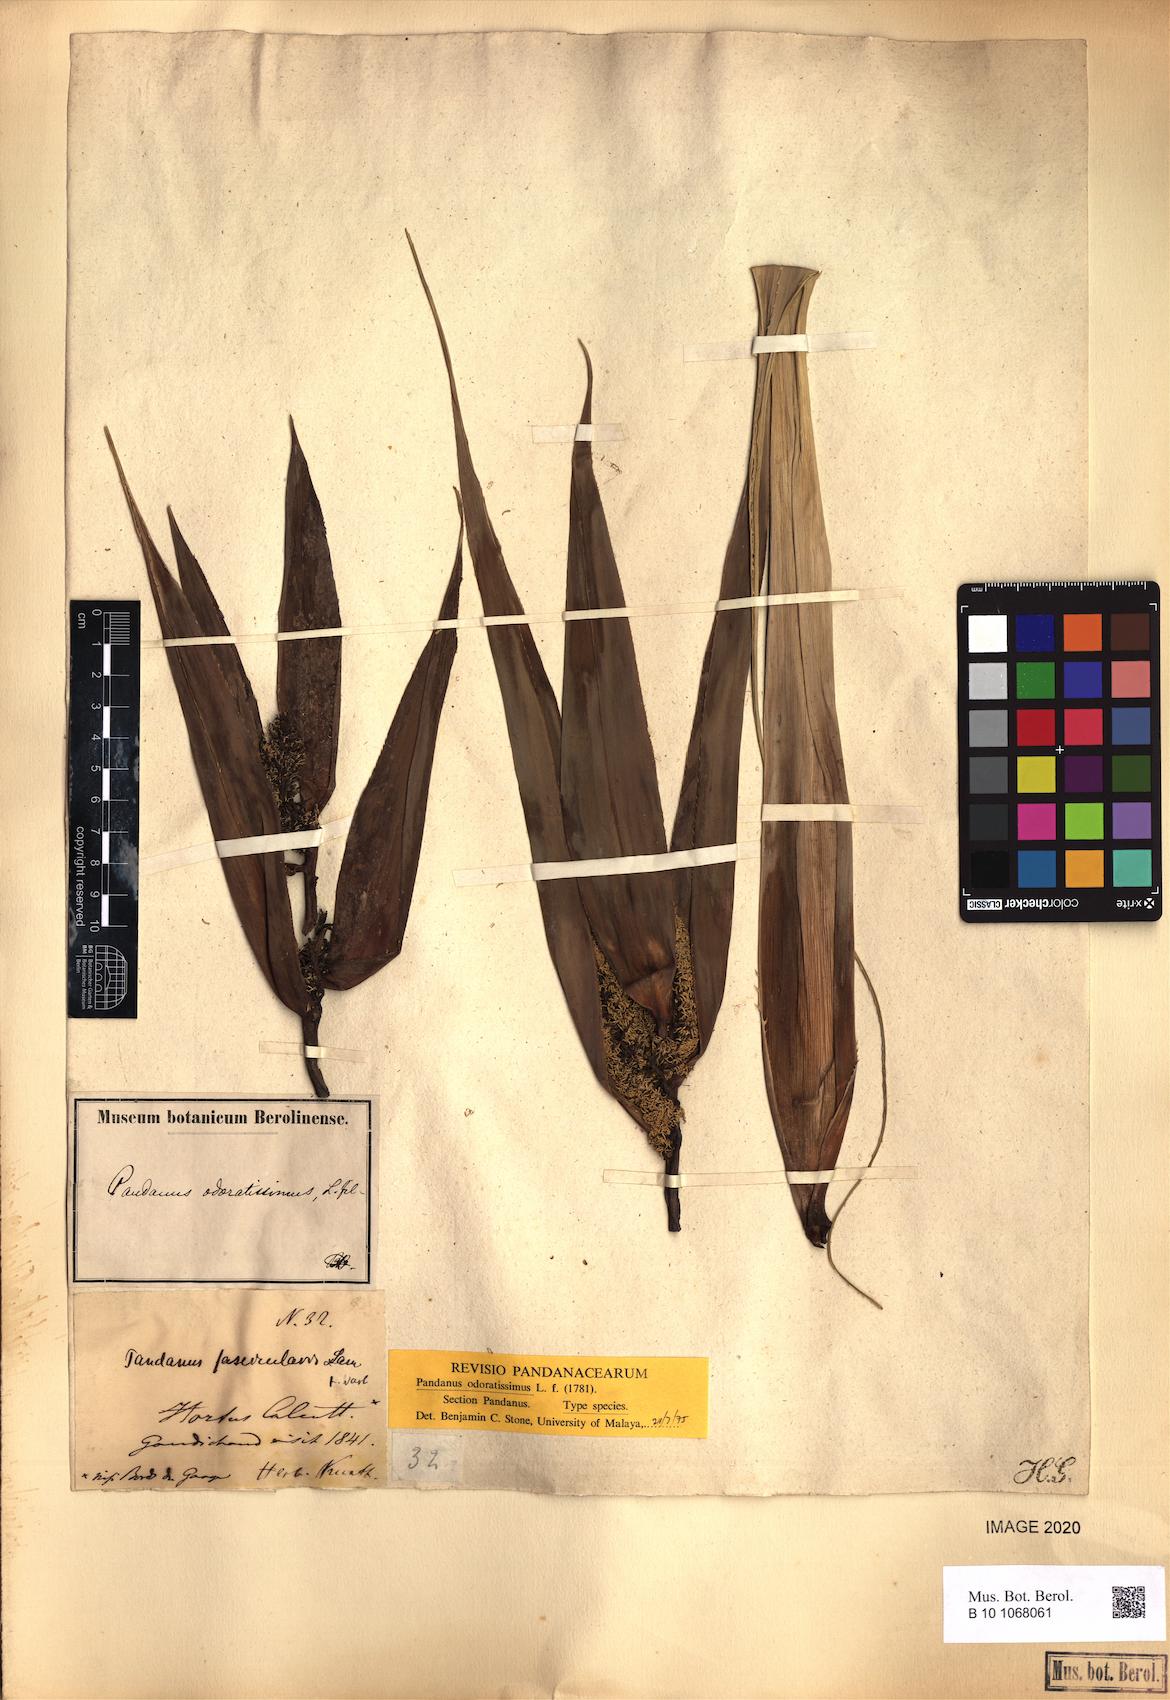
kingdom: Plantae
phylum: Tracheophyta
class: Liliopsida
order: Pandanales
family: Pandanaceae
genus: Pandanus
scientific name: Pandanus odorifer
